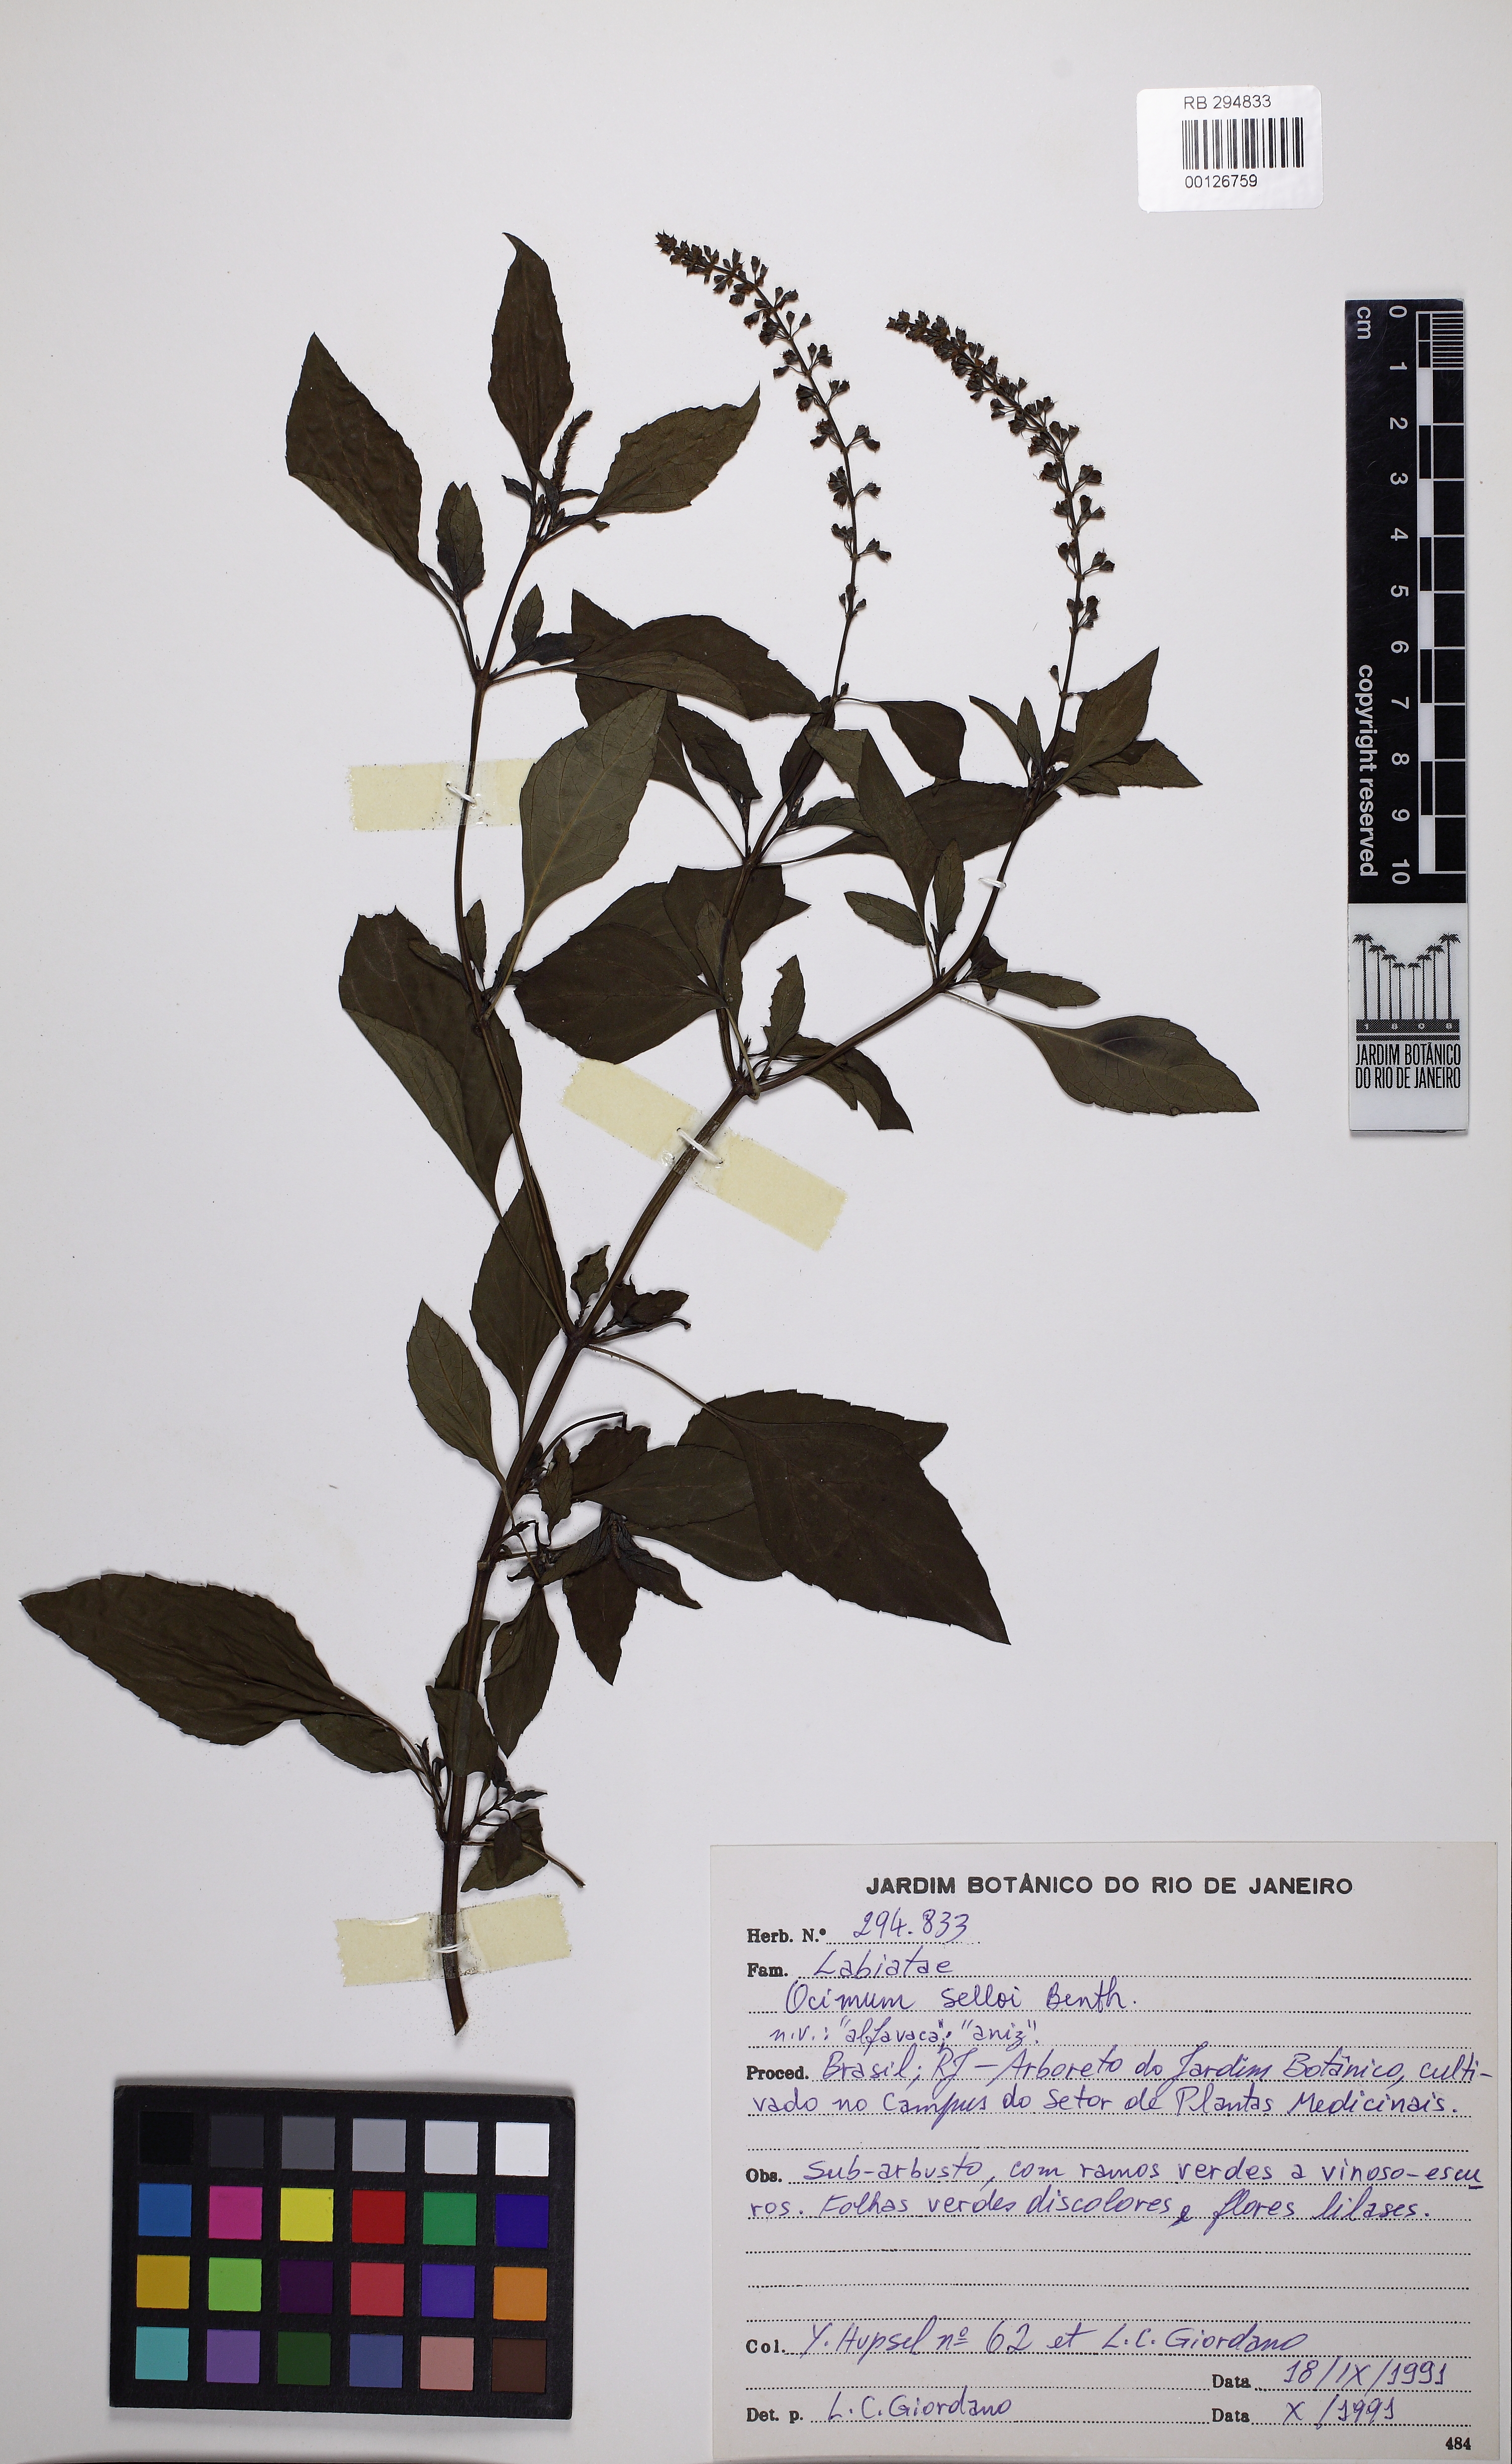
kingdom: Plantae
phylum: Tracheophyta
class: Magnoliopsida
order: Lamiales
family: Lamiaceae
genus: Ocimum
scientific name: Ocimum carnosum
